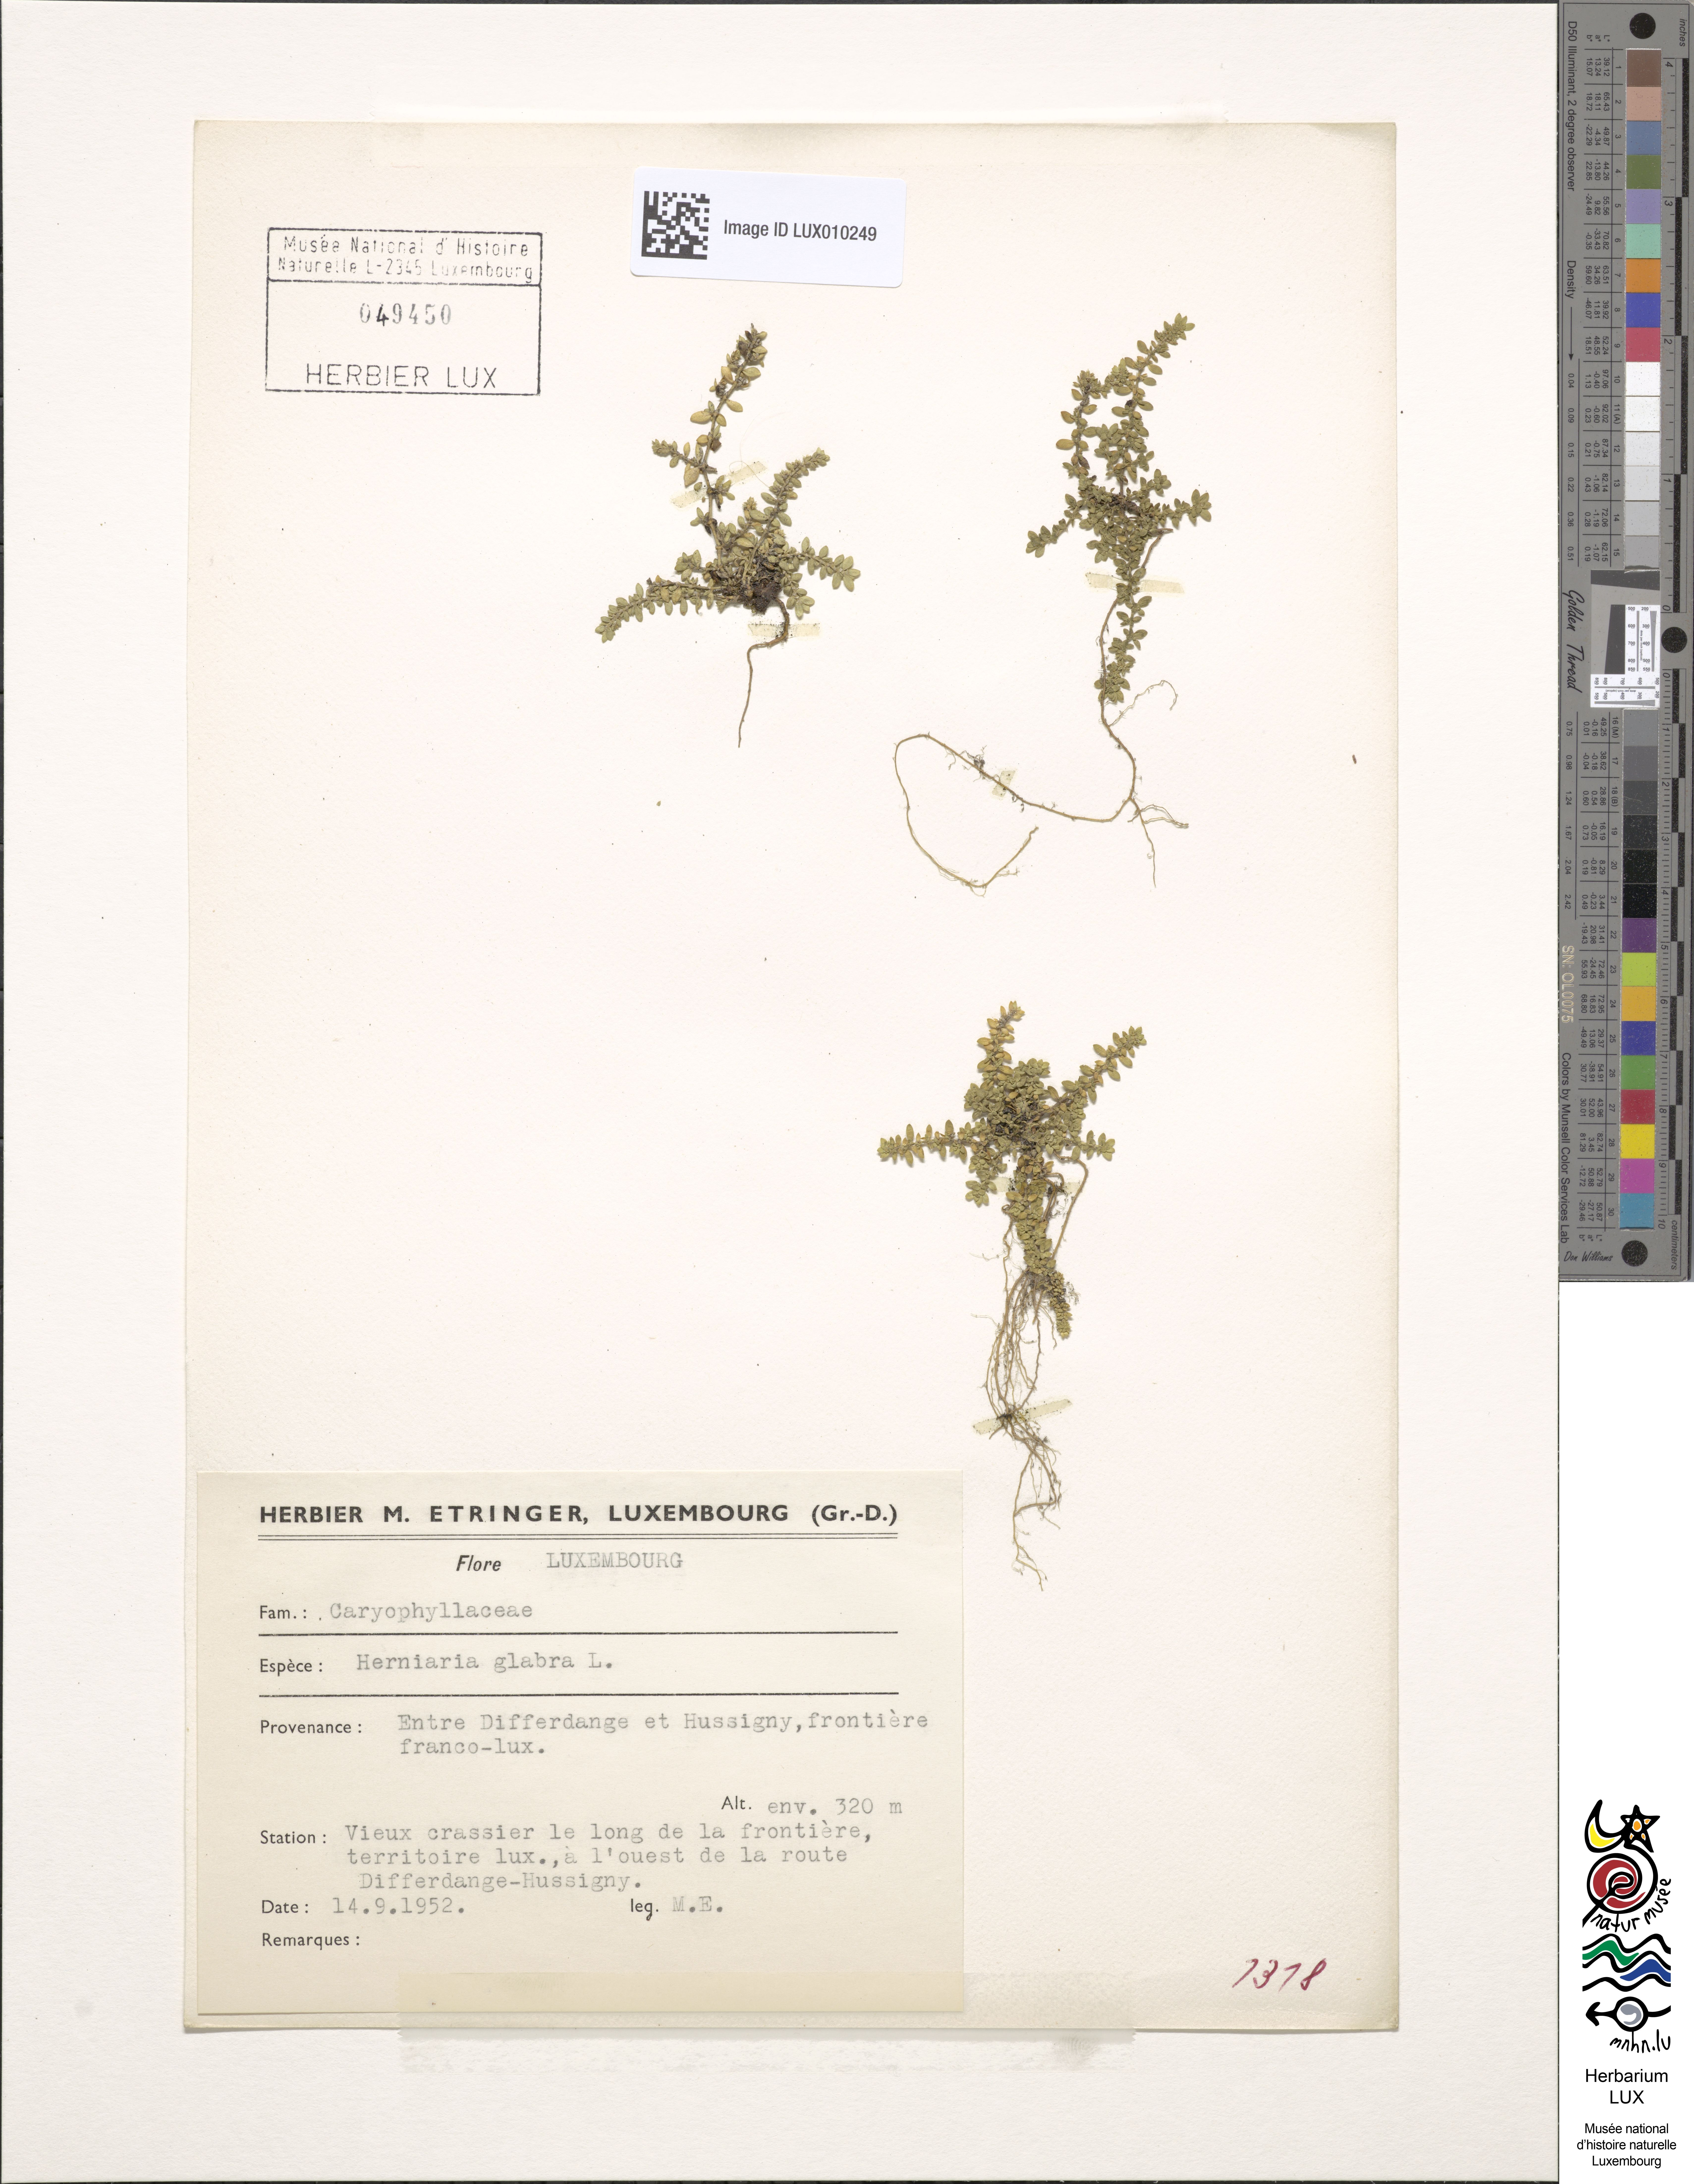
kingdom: Plantae
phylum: Tracheophyta
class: Magnoliopsida
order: Caryophyllales
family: Caryophyllaceae
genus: Herniaria
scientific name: Herniaria glabra
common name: Smooth rupturewort
